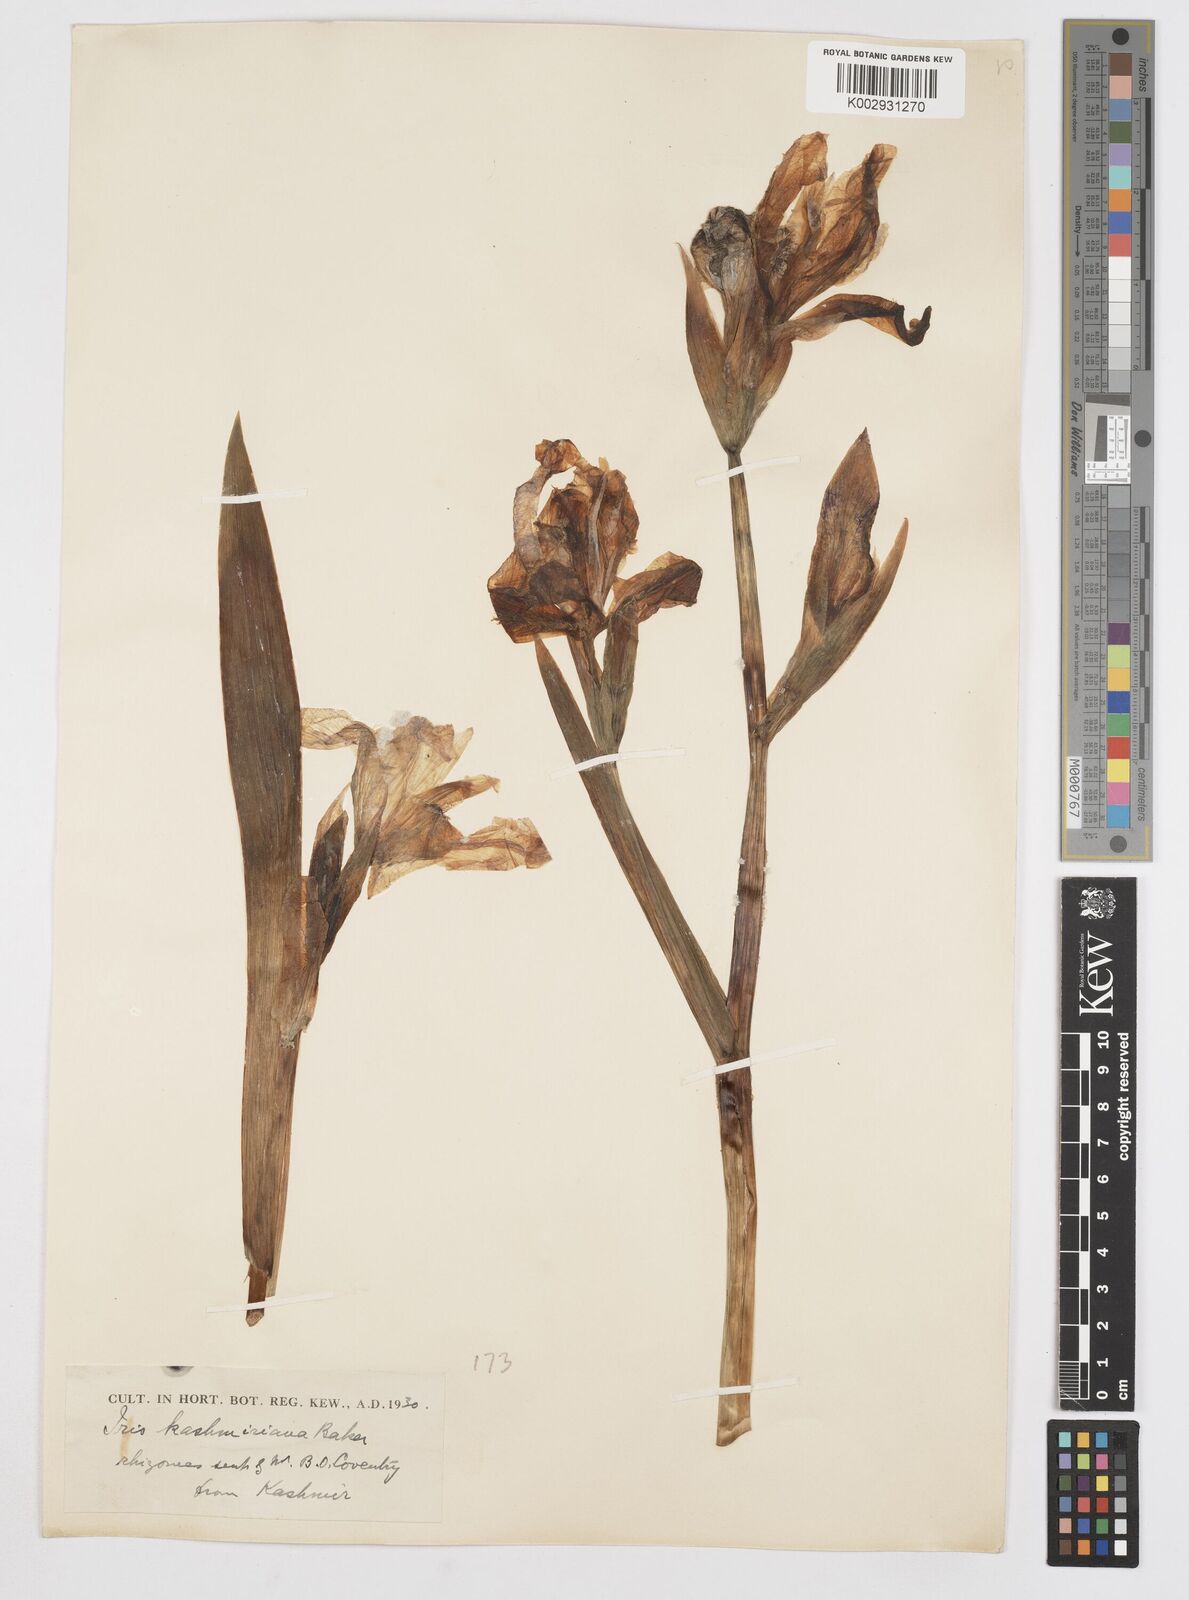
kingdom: Plantae
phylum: Tracheophyta
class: Liliopsida
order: Asparagales
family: Iridaceae
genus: Iris
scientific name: Iris kashmiriana
